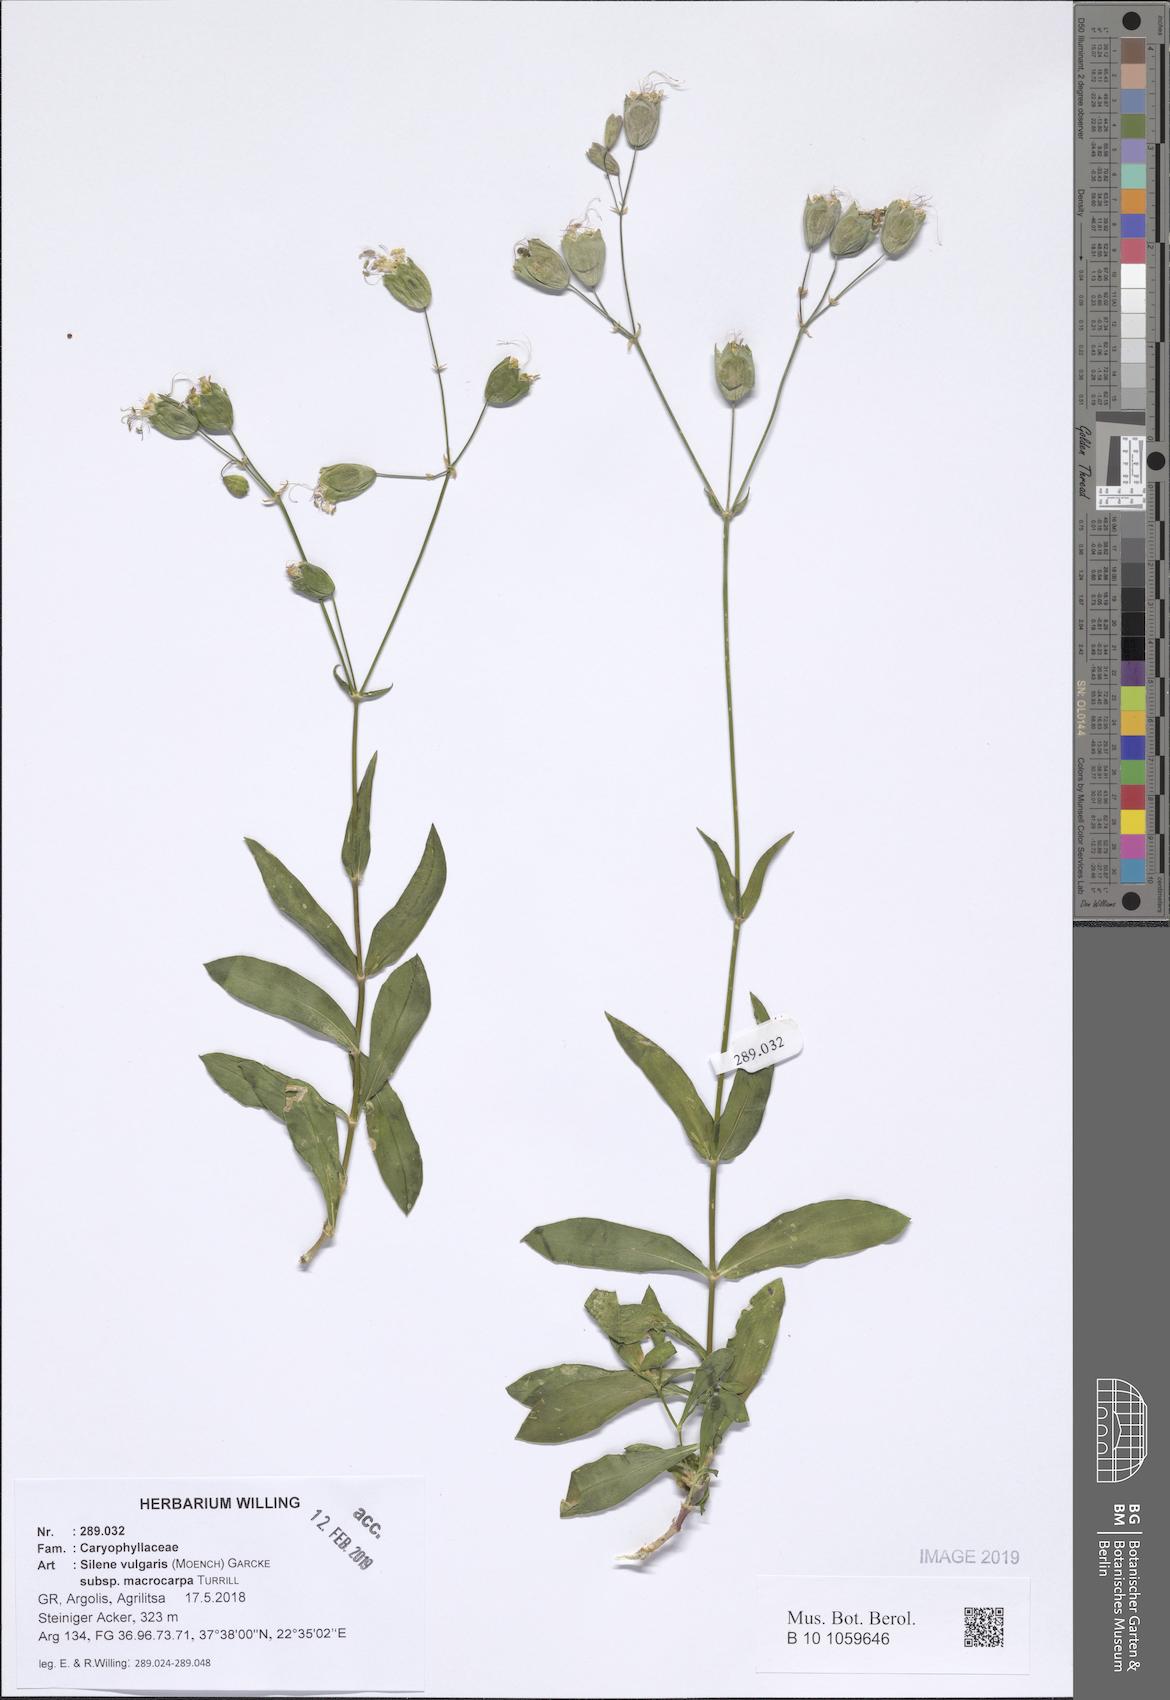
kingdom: Plantae
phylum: Tracheophyta
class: Magnoliopsida
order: Caryophyllales
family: Caryophyllaceae
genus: Silene
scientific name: Silene vulgaris
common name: Bladder campion
